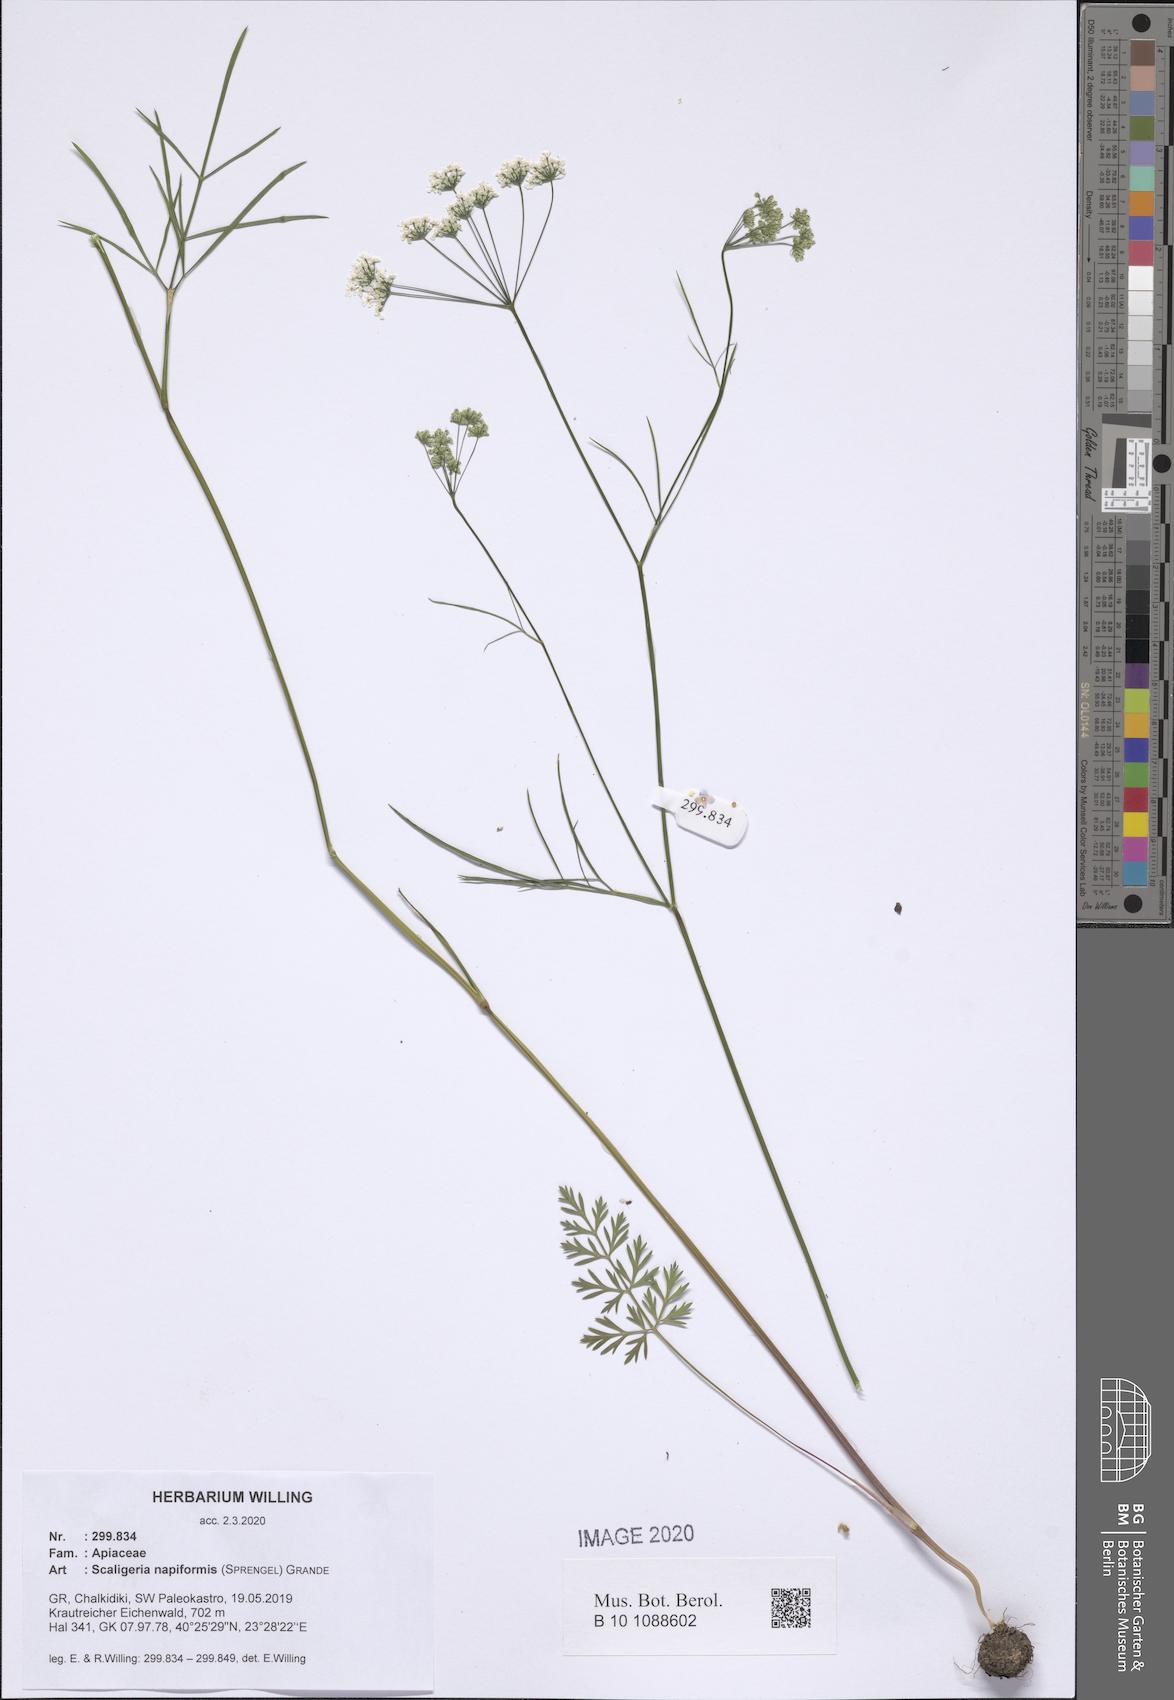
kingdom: Plantae
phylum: Tracheophyta
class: Magnoliopsida
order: Apiales
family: Apiaceae
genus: Scaligeria
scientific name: Scaligeria napiformis
